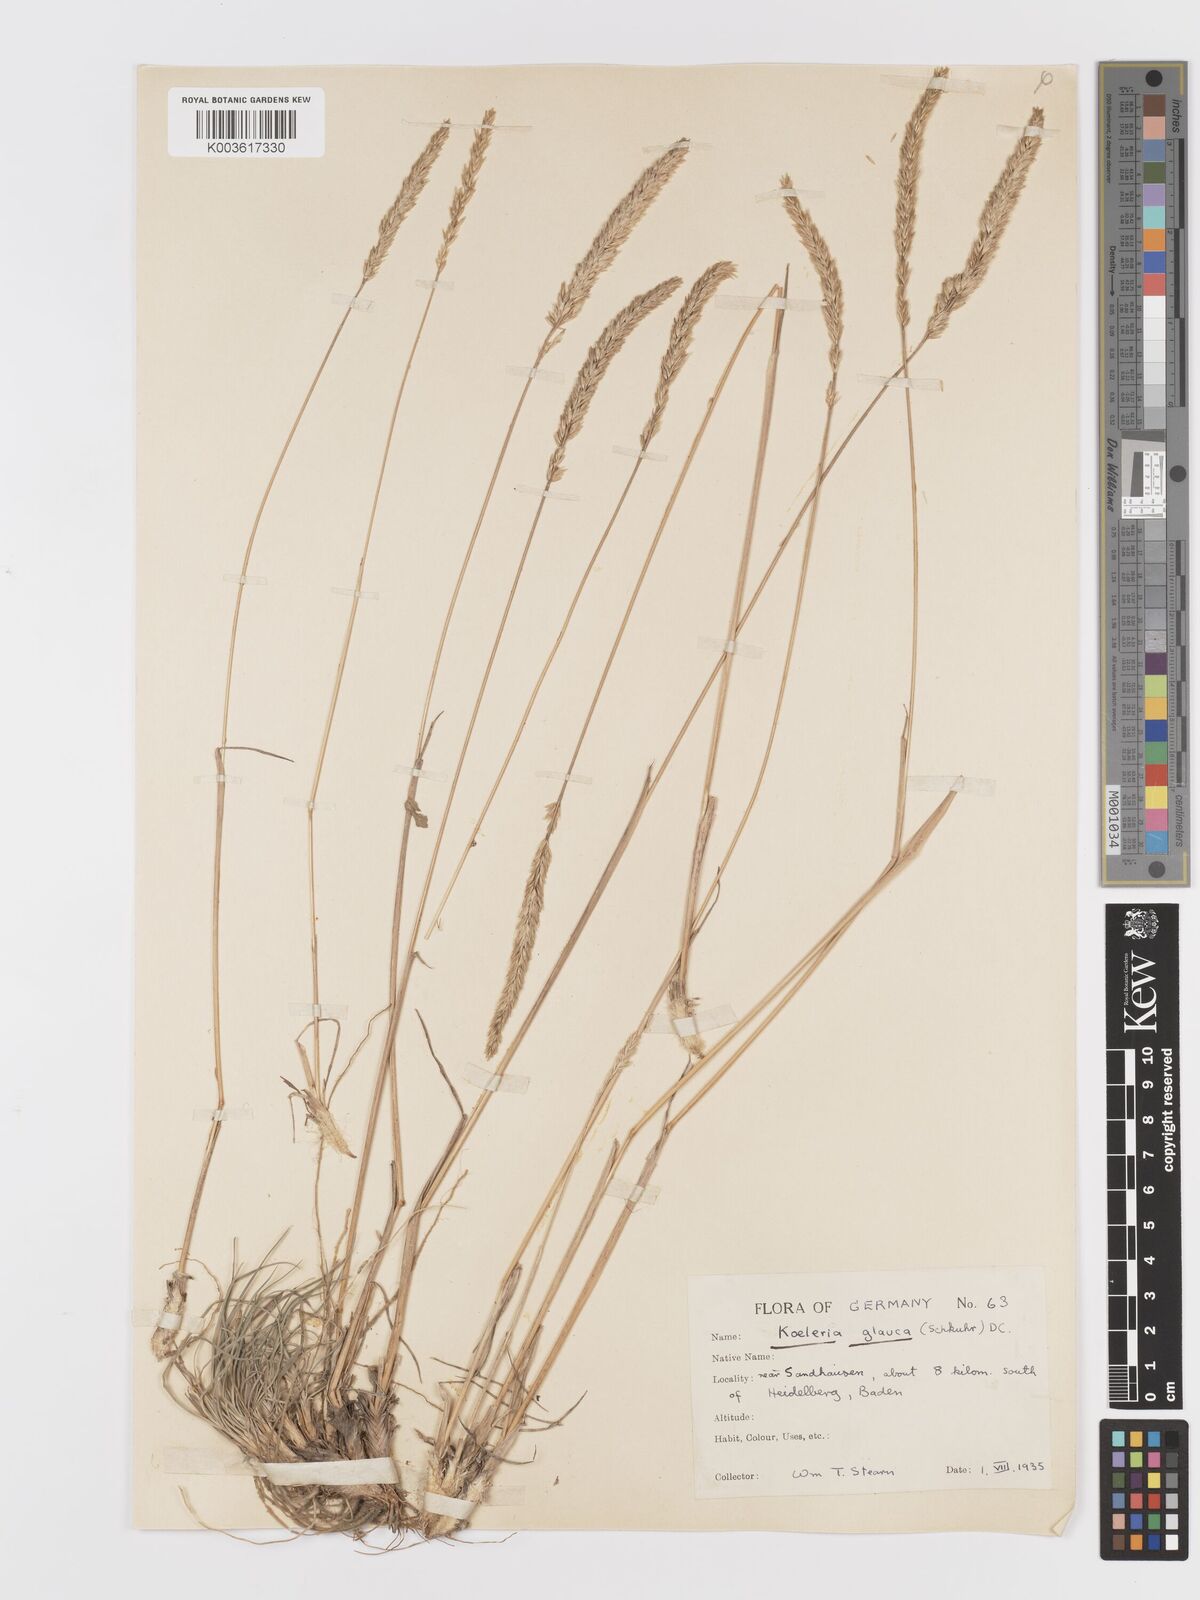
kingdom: Plantae
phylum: Tracheophyta
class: Liliopsida
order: Poales
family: Poaceae
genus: Koeleria
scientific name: Koeleria glauca
